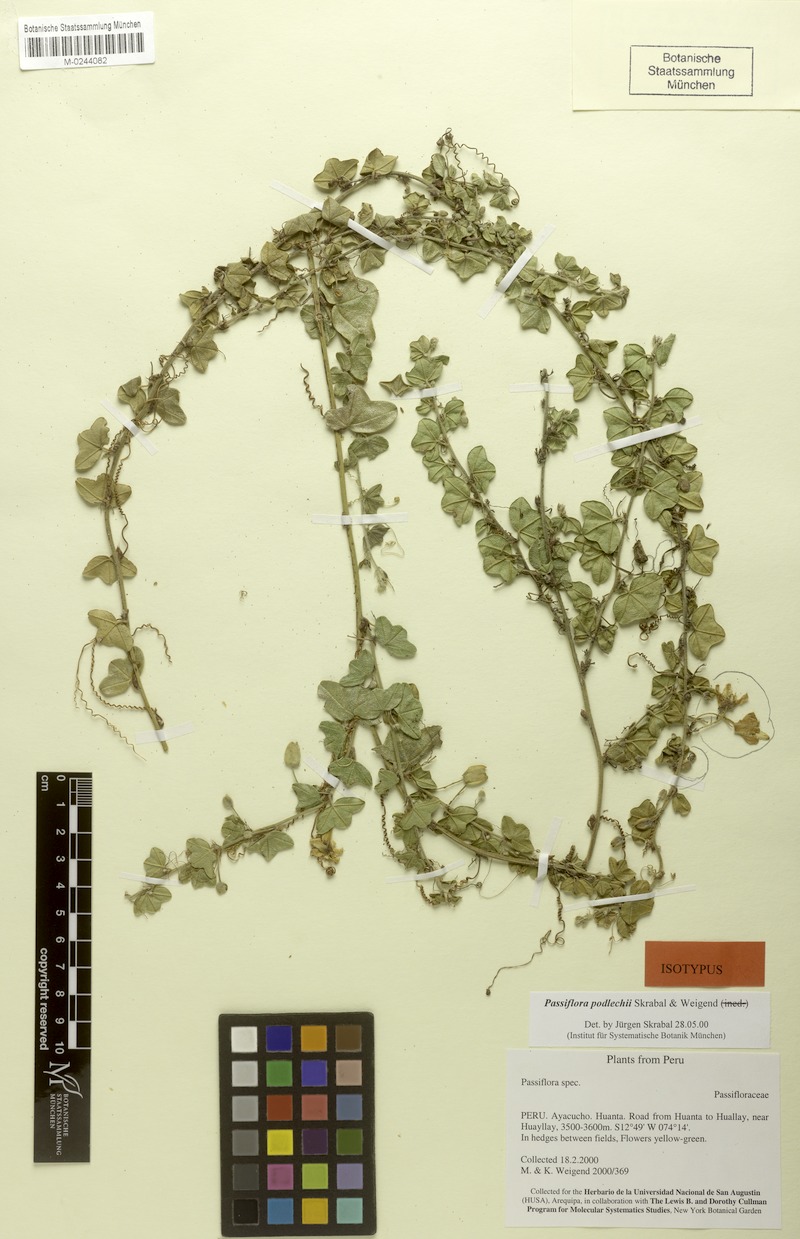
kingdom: Plantae
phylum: Tracheophyta
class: Magnoliopsida
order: Malpighiales
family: Passifloraceae
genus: Passiflora
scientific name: Passiflora podlechii
